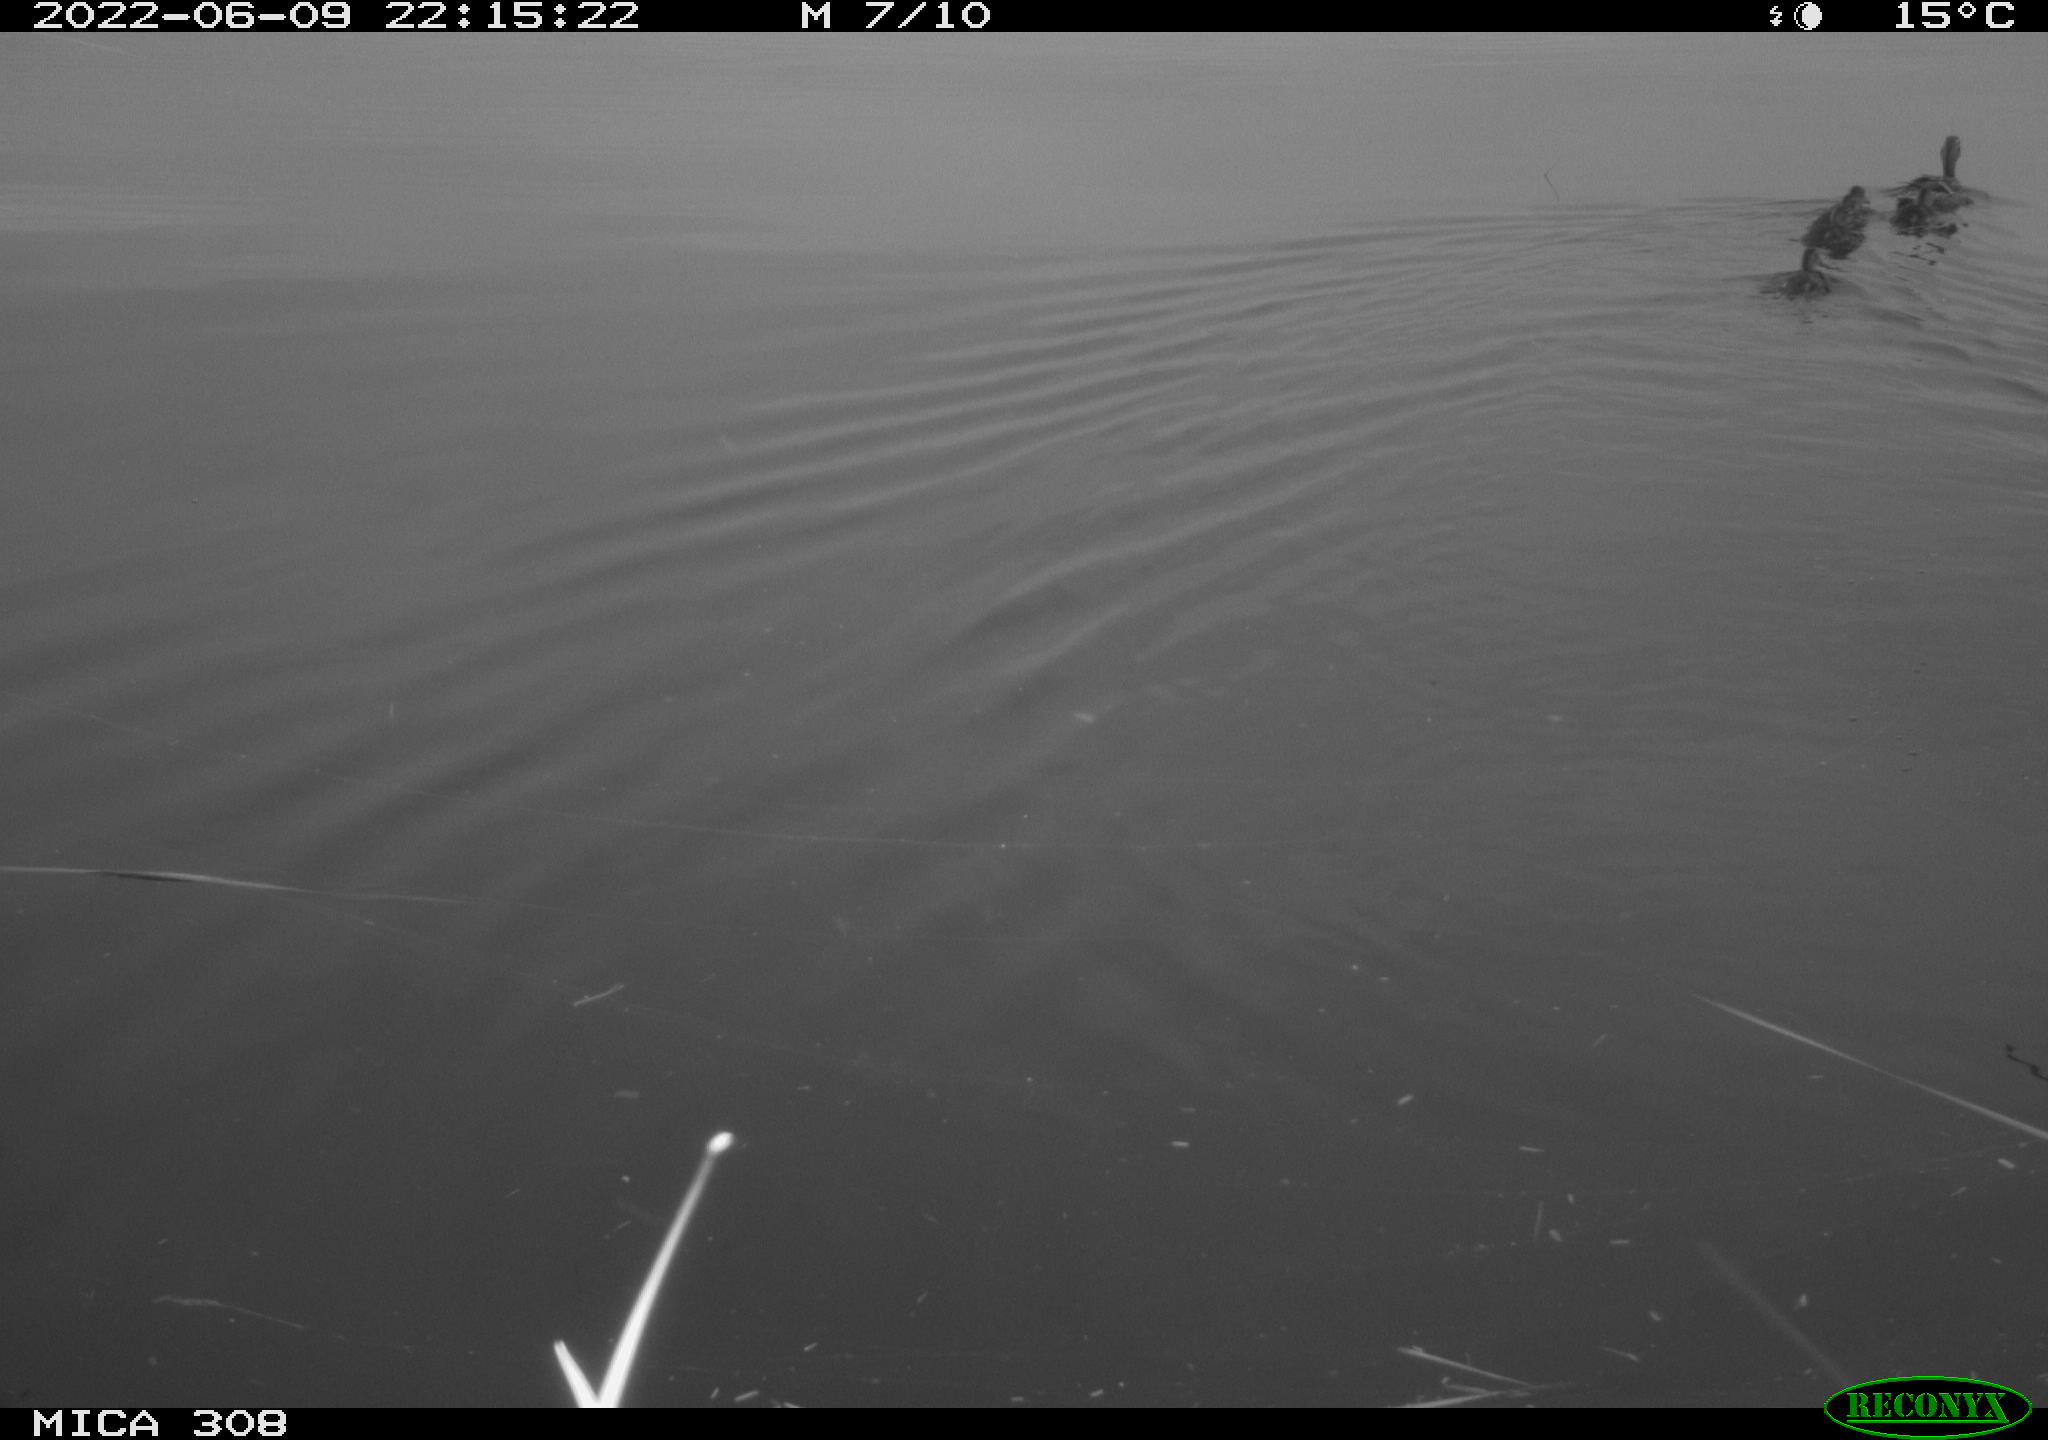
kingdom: Animalia
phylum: Chordata
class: Aves
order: Anseriformes
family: Anatidae
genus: Anas
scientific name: Anas platyrhynchos
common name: Mallard
